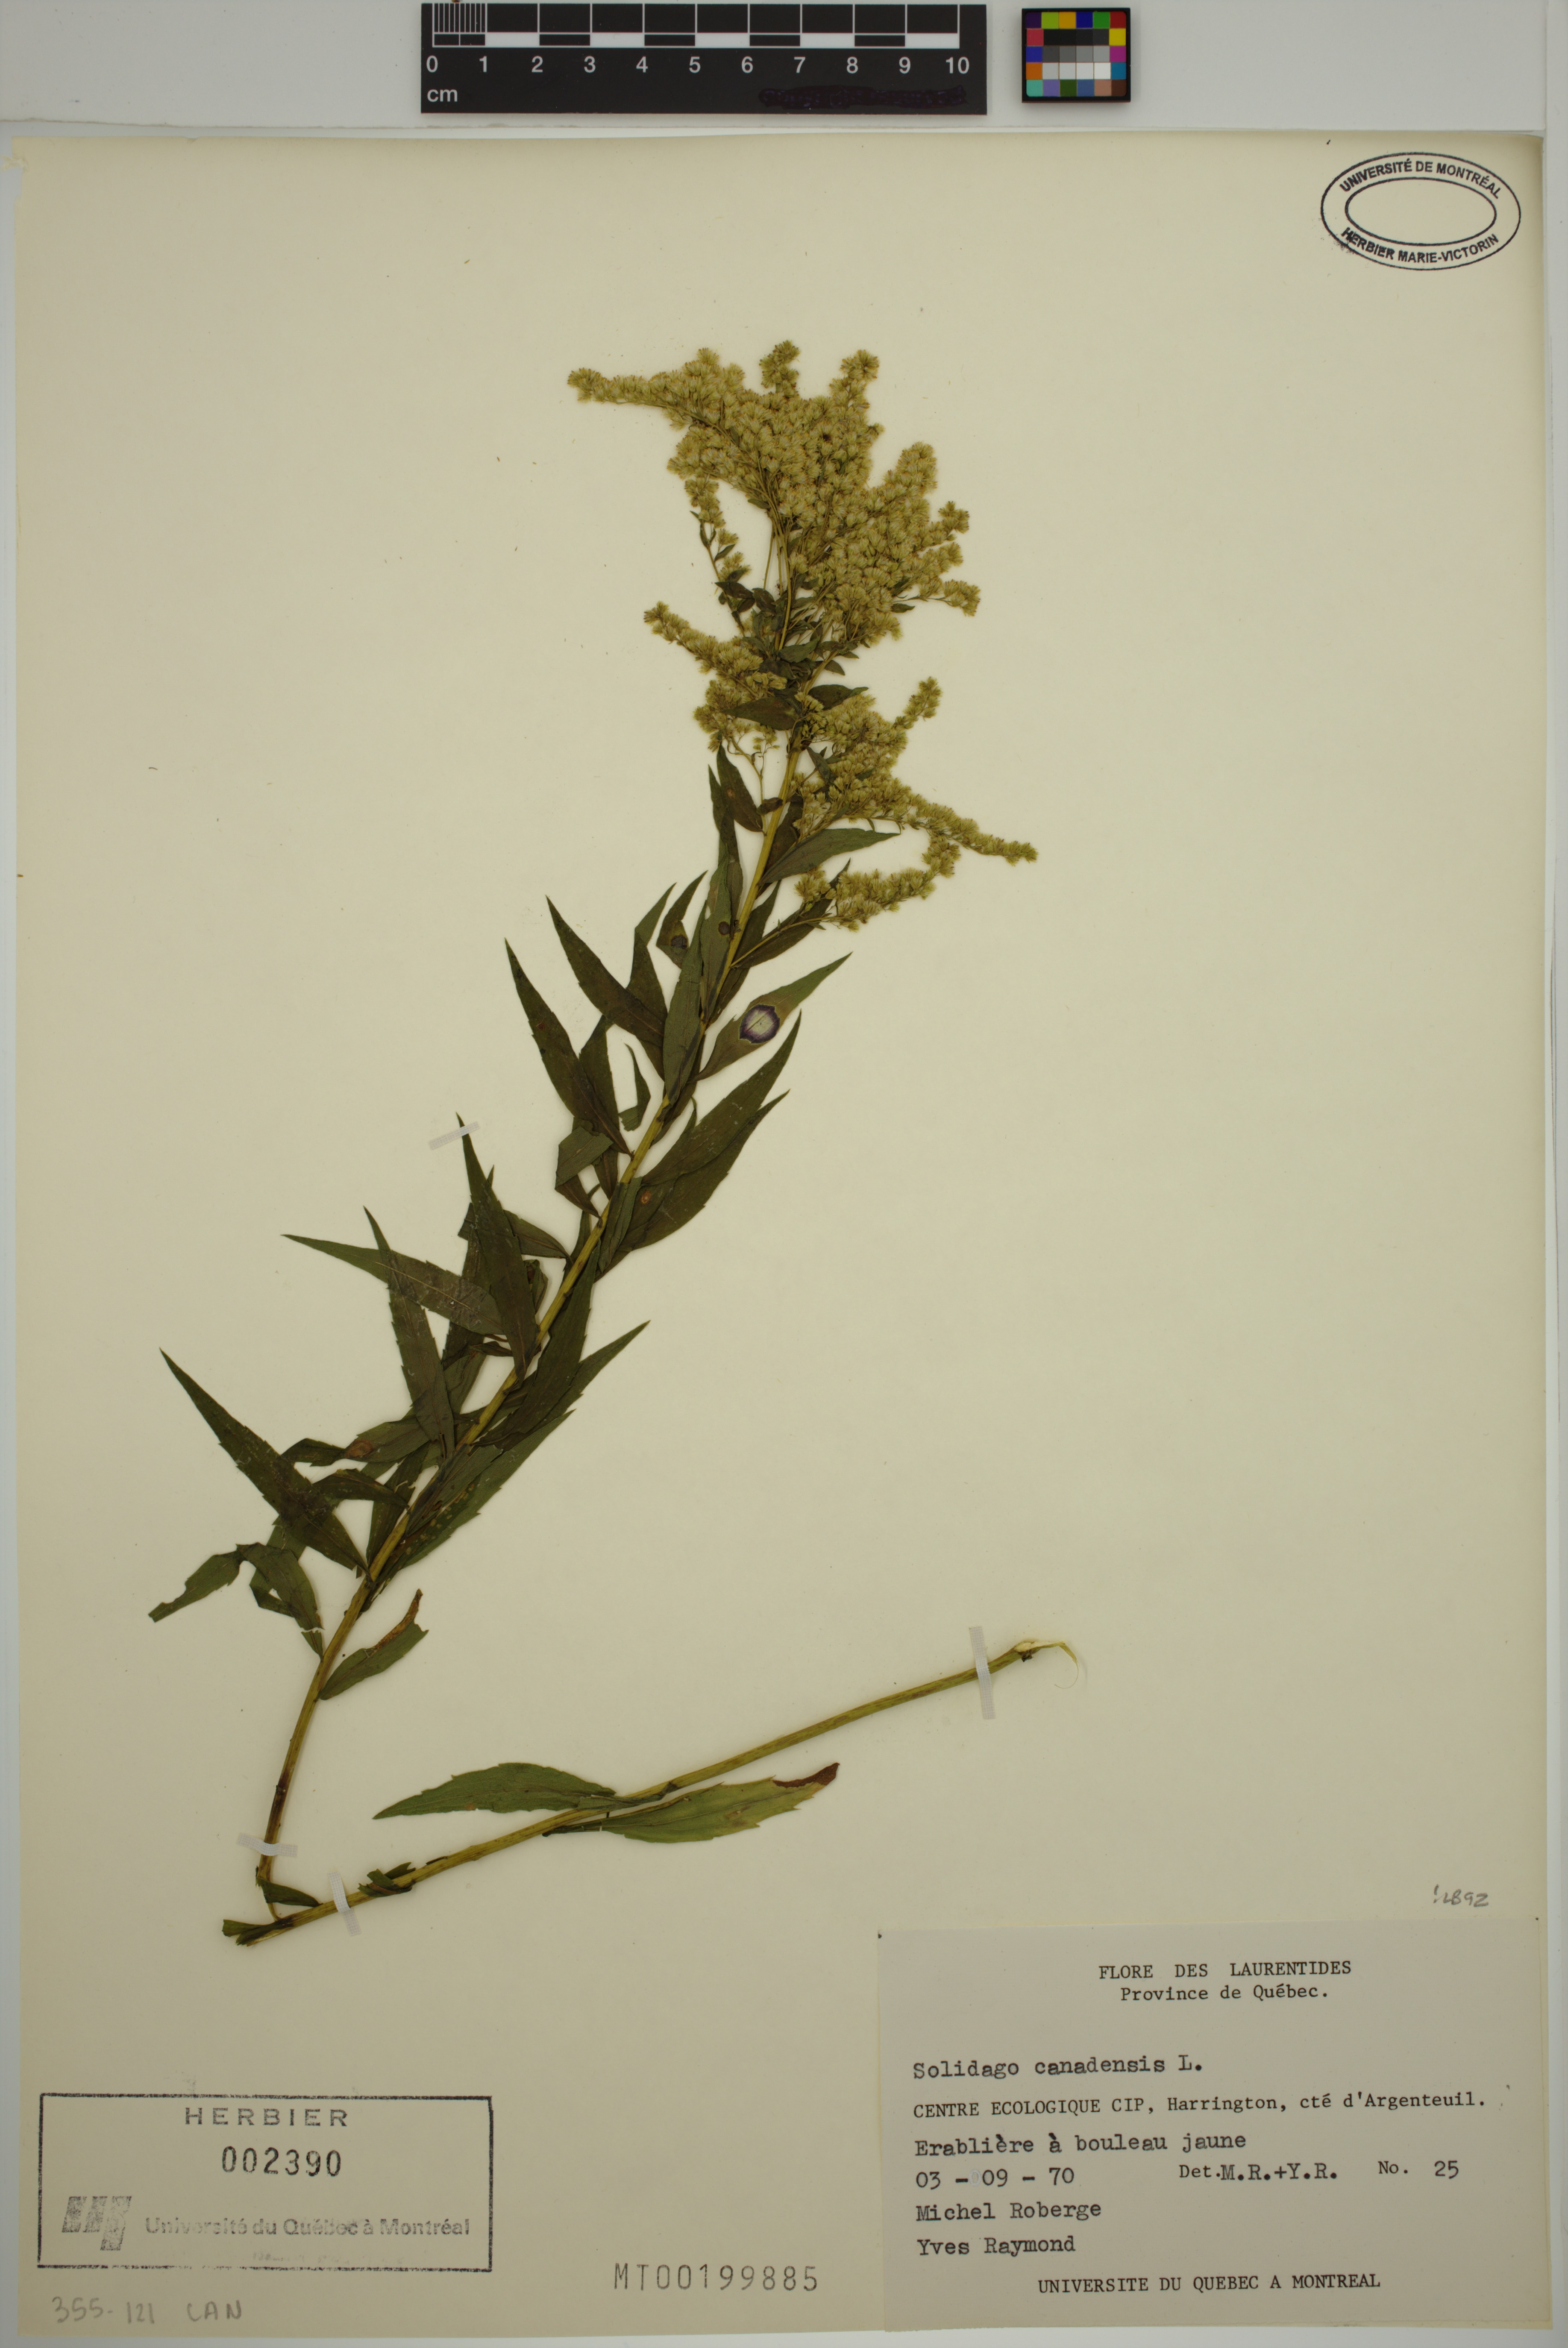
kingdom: Plantae
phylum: Tracheophyta
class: Magnoliopsida
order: Asterales
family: Asteraceae
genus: Solidago
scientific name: Solidago canadensis
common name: Canada goldenrod
